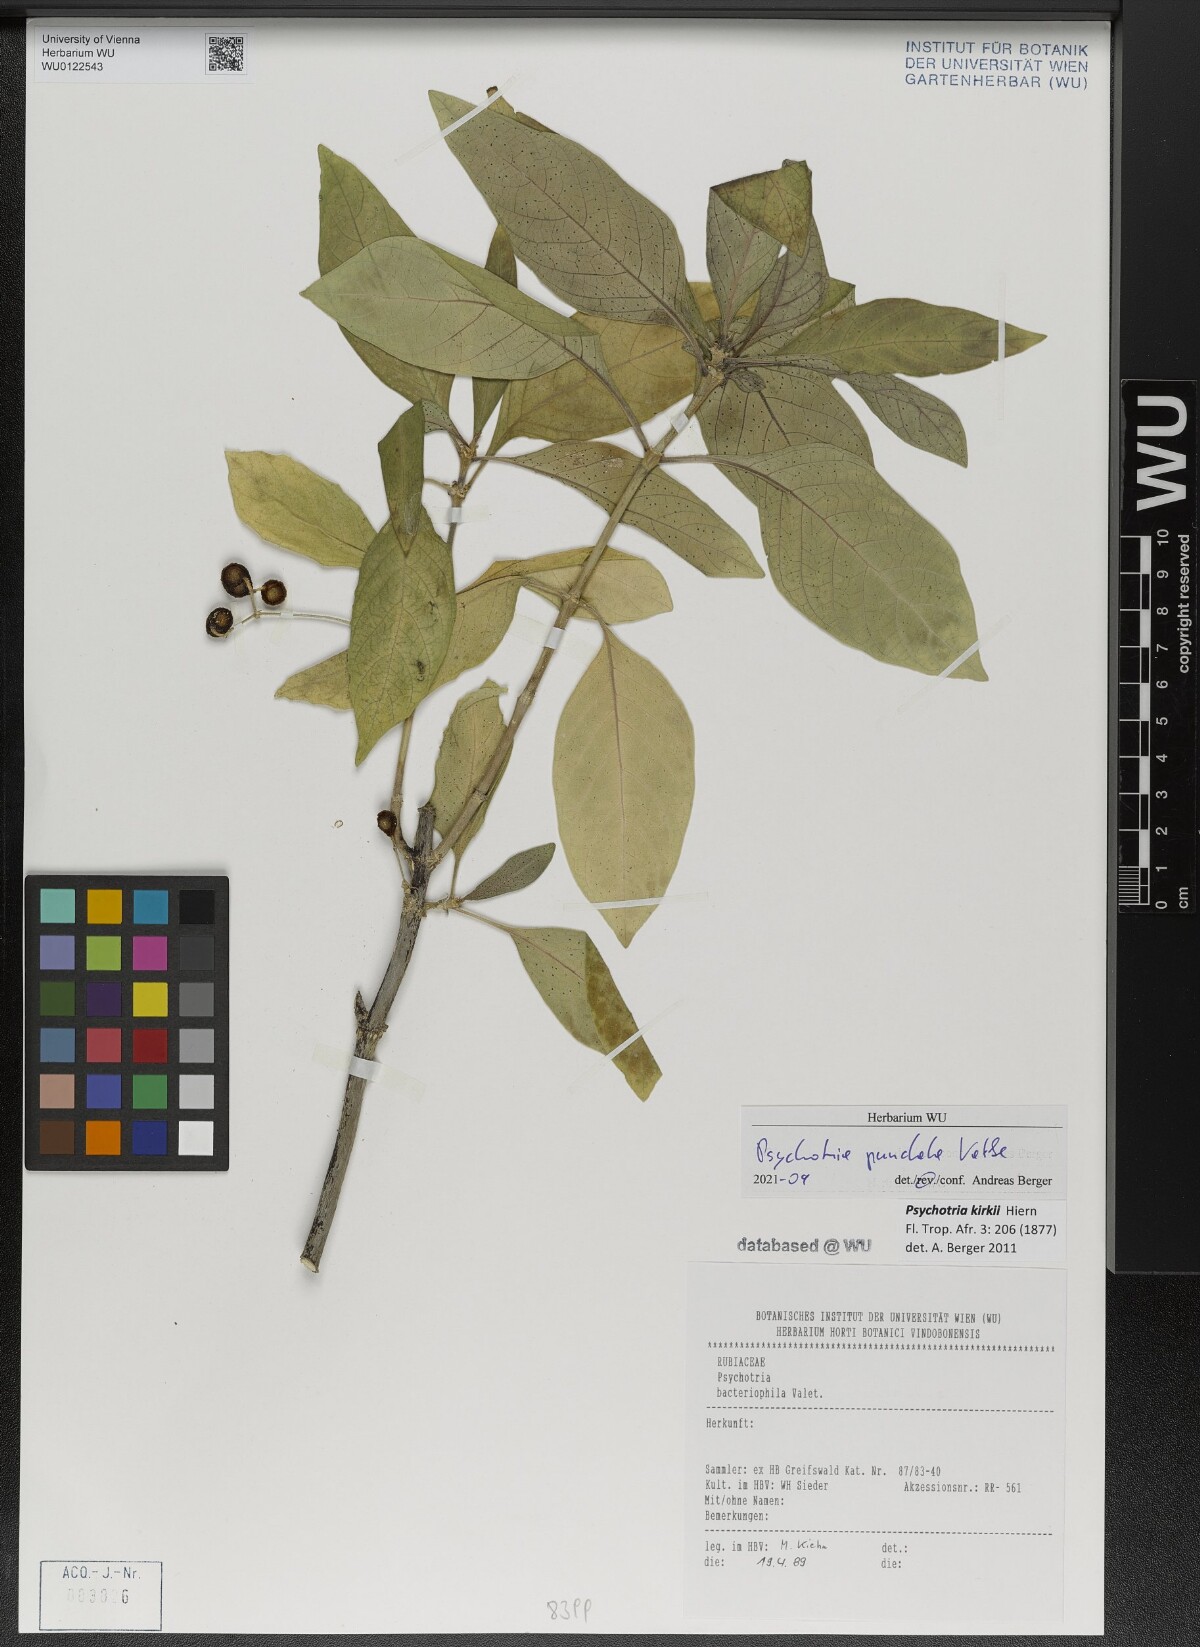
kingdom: Plantae
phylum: Tracheophyta
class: Magnoliopsida
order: Gentianales
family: Rubiaceae
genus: Psychotria
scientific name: Psychotria punctata
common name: Dotted wild coffee
